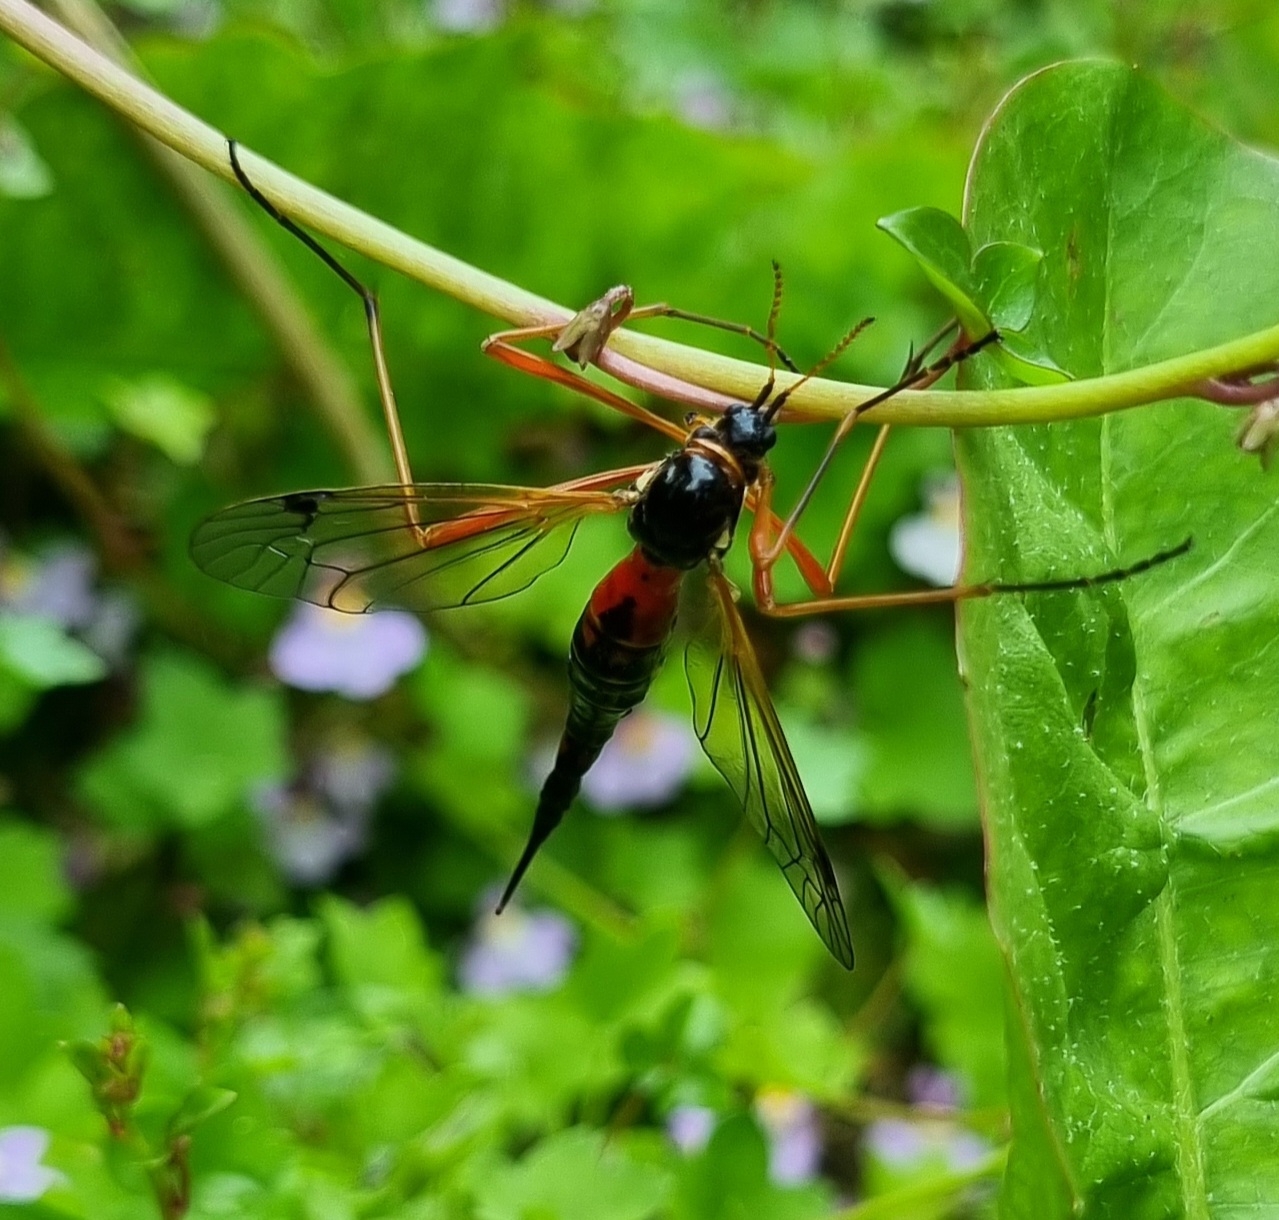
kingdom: Animalia
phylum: Arthropoda
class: Insecta
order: Diptera
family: Tipulidae
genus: Tanyptera
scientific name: Tanyptera atrata
